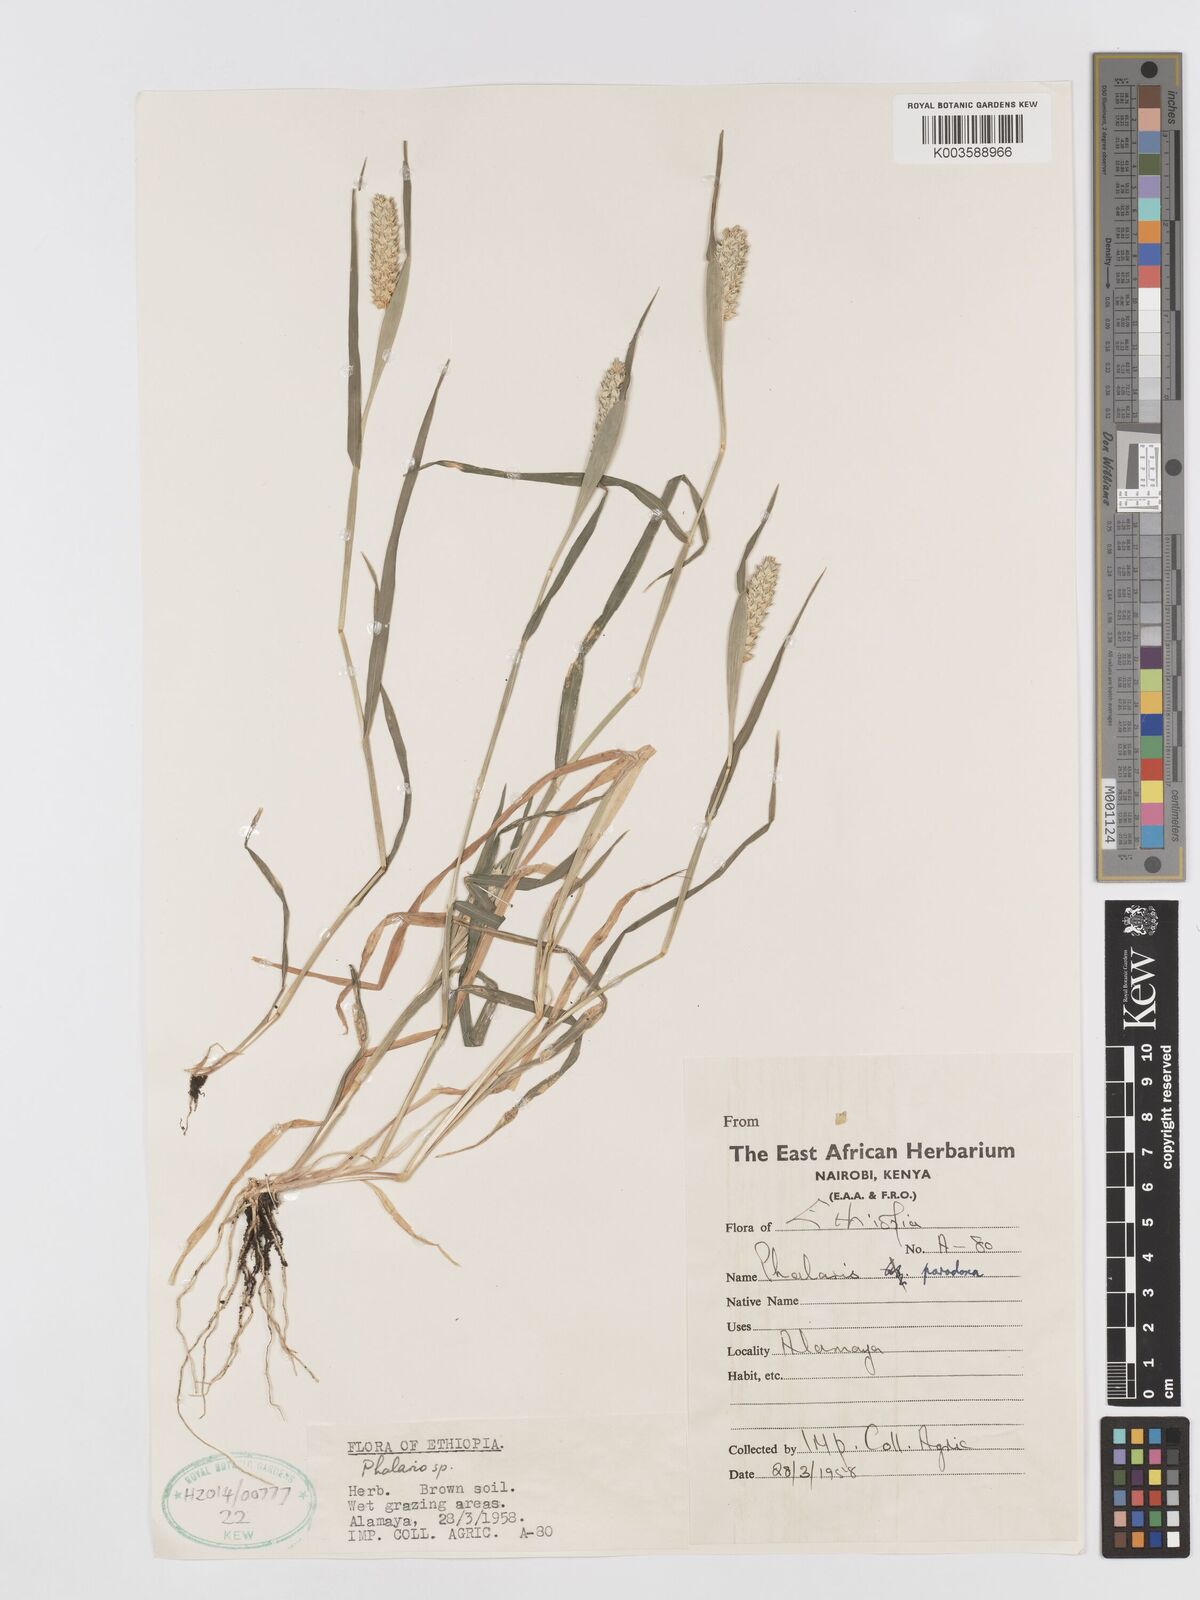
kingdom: Plantae
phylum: Tracheophyta
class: Liliopsida
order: Poales
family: Poaceae
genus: Phalaris
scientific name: Phalaris paradoxa
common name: Awned canary-grass
